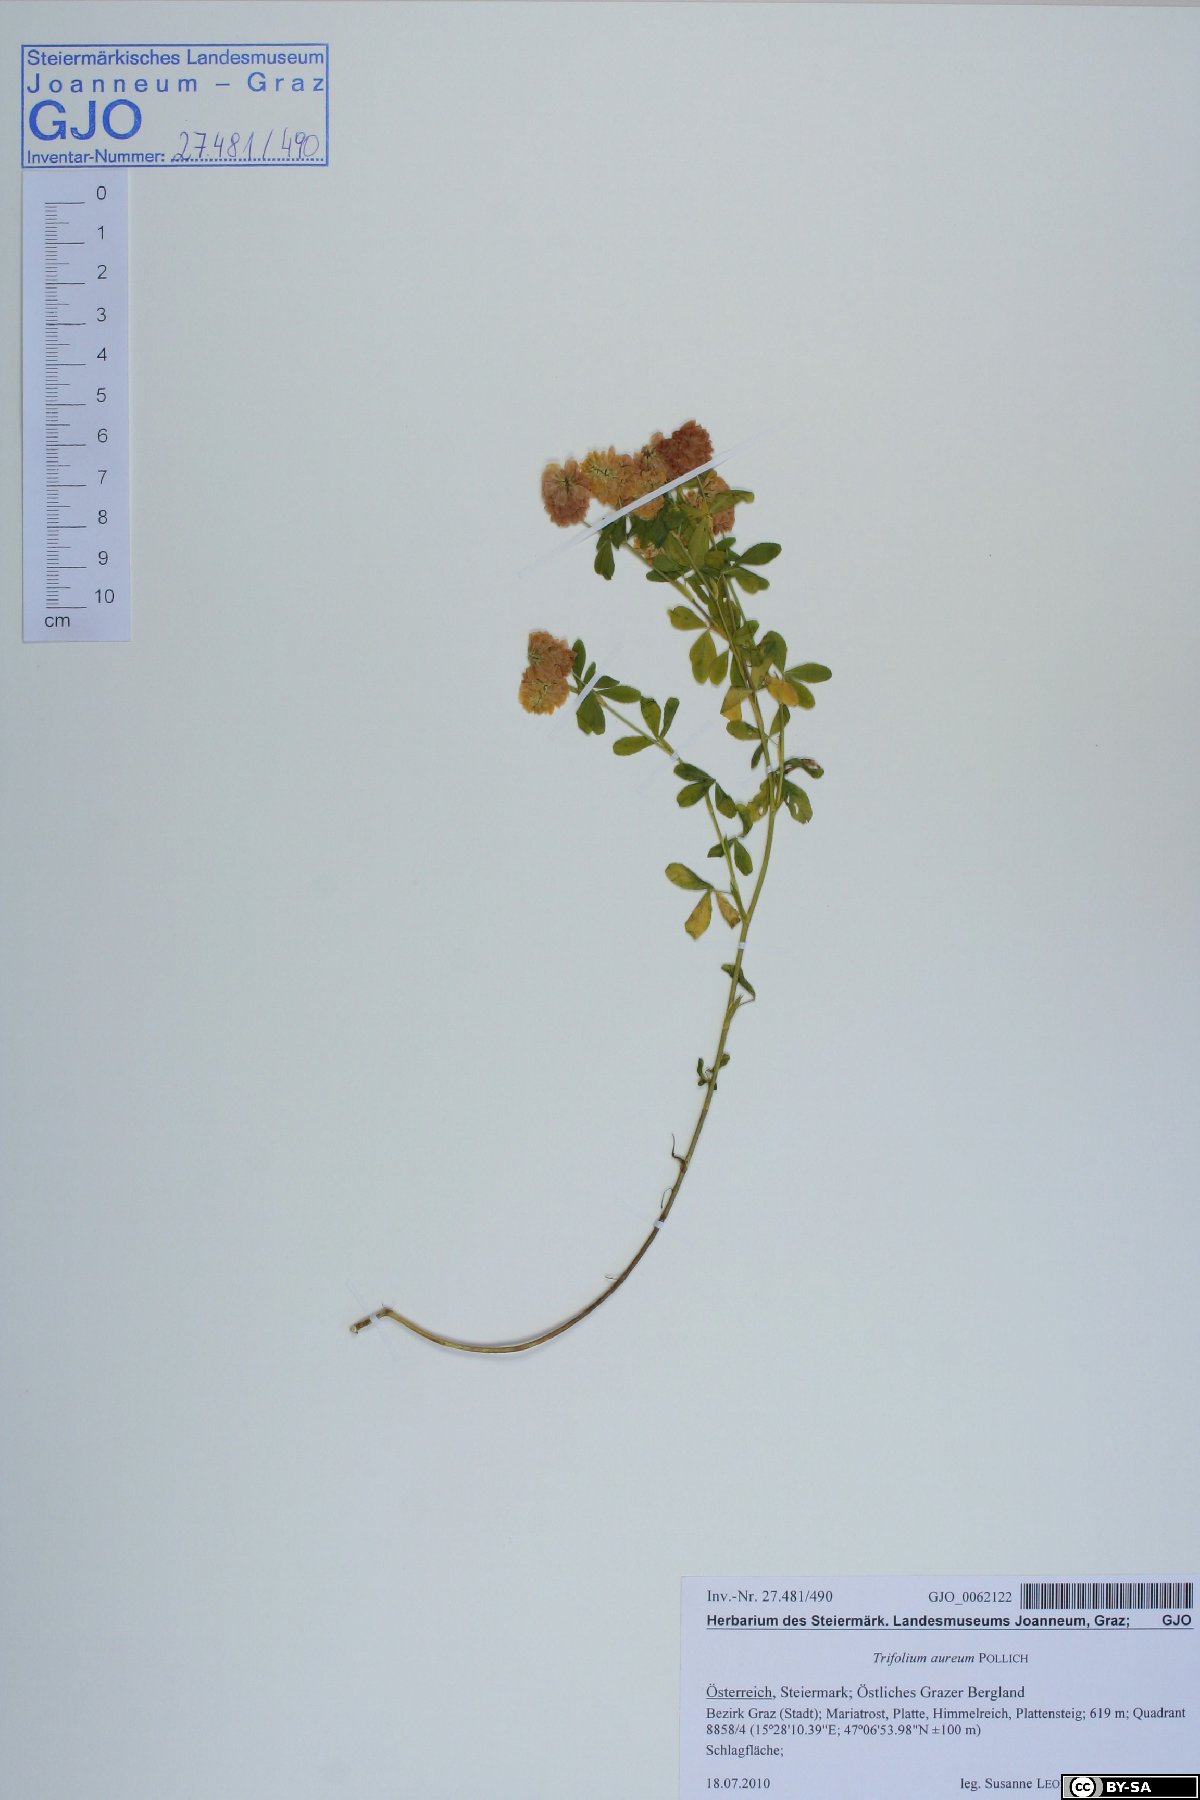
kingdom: Plantae
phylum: Tracheophyta
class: Magnoliopsida
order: Fabales
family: Fabaceae
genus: Trifolium
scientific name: Trifolium aureum
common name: Golden clover
